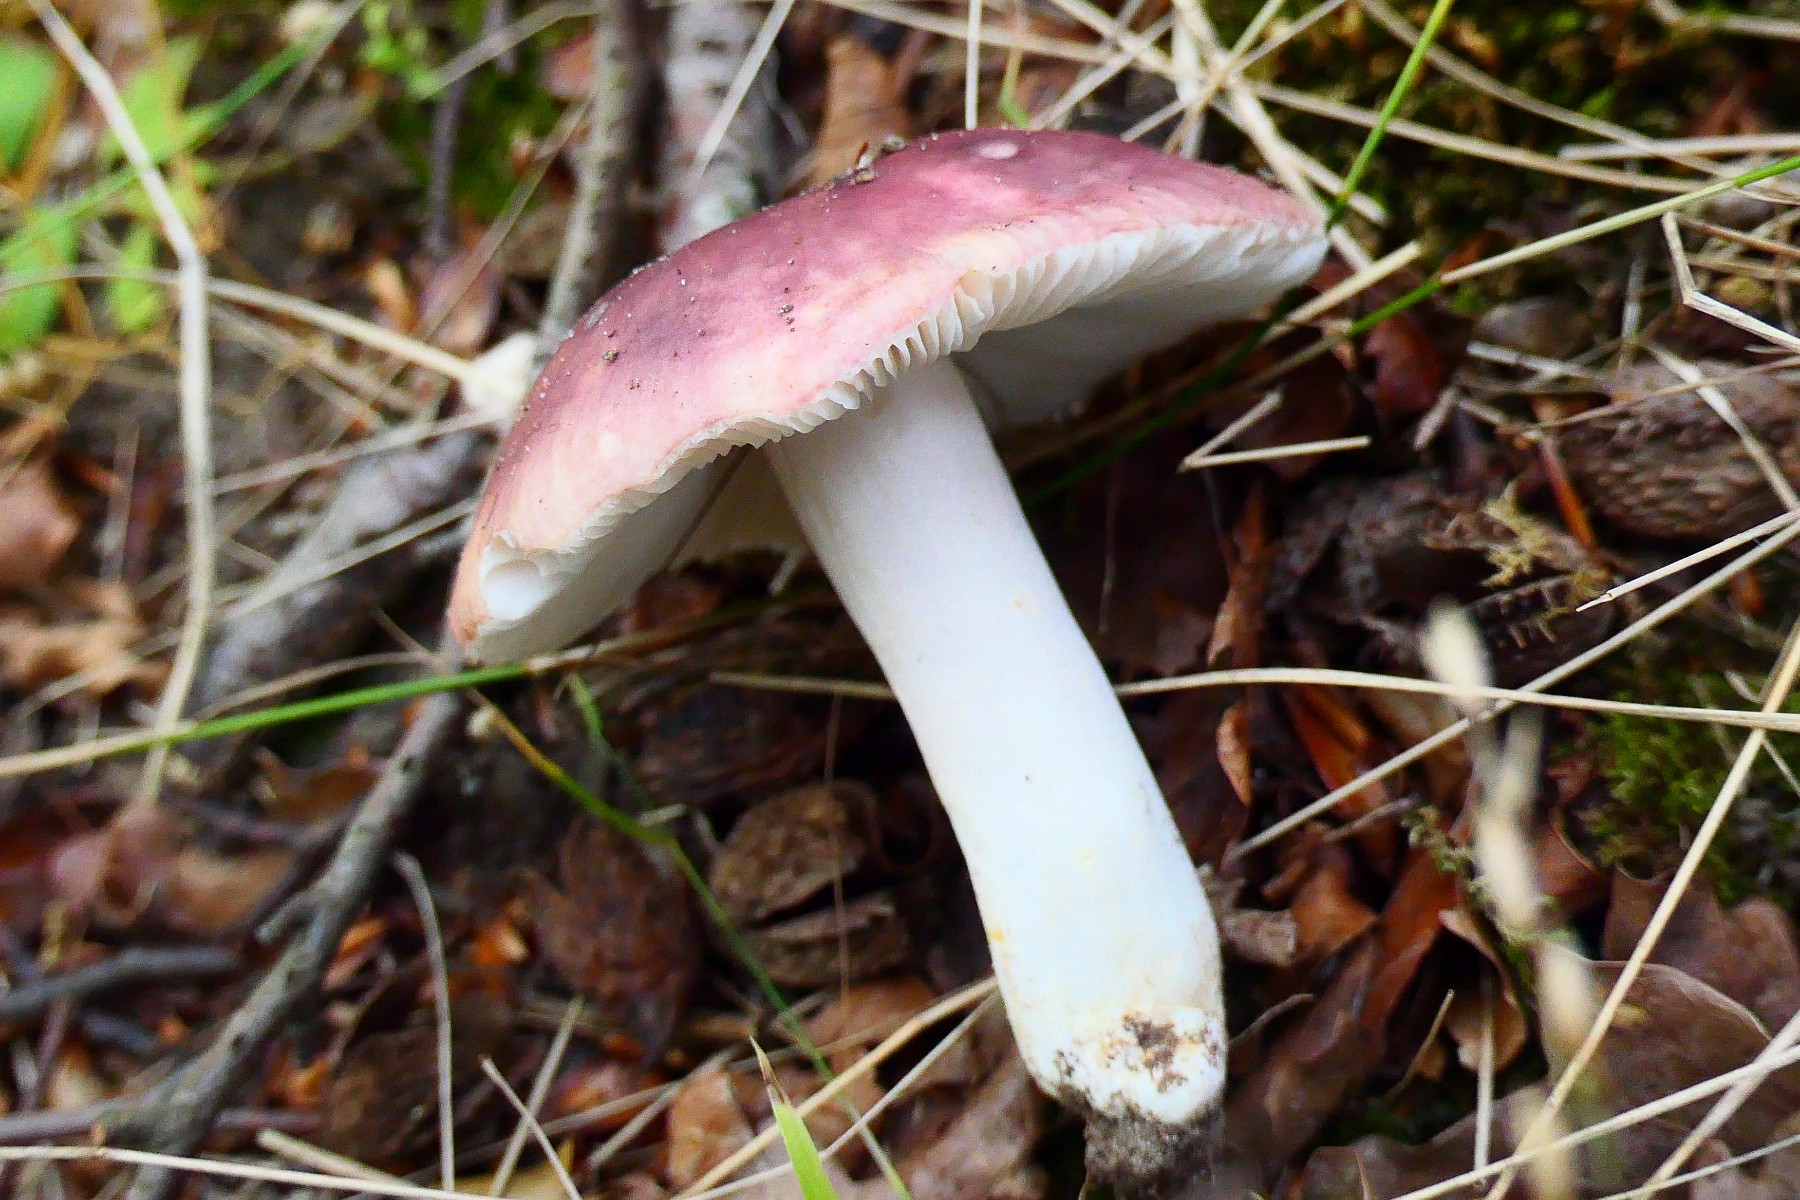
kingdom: Fungi
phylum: Basidiomycota
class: Agaricomycetes
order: Russulales
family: Russulaceae
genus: Russula
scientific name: Russula vesca
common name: spiselig skørhat
